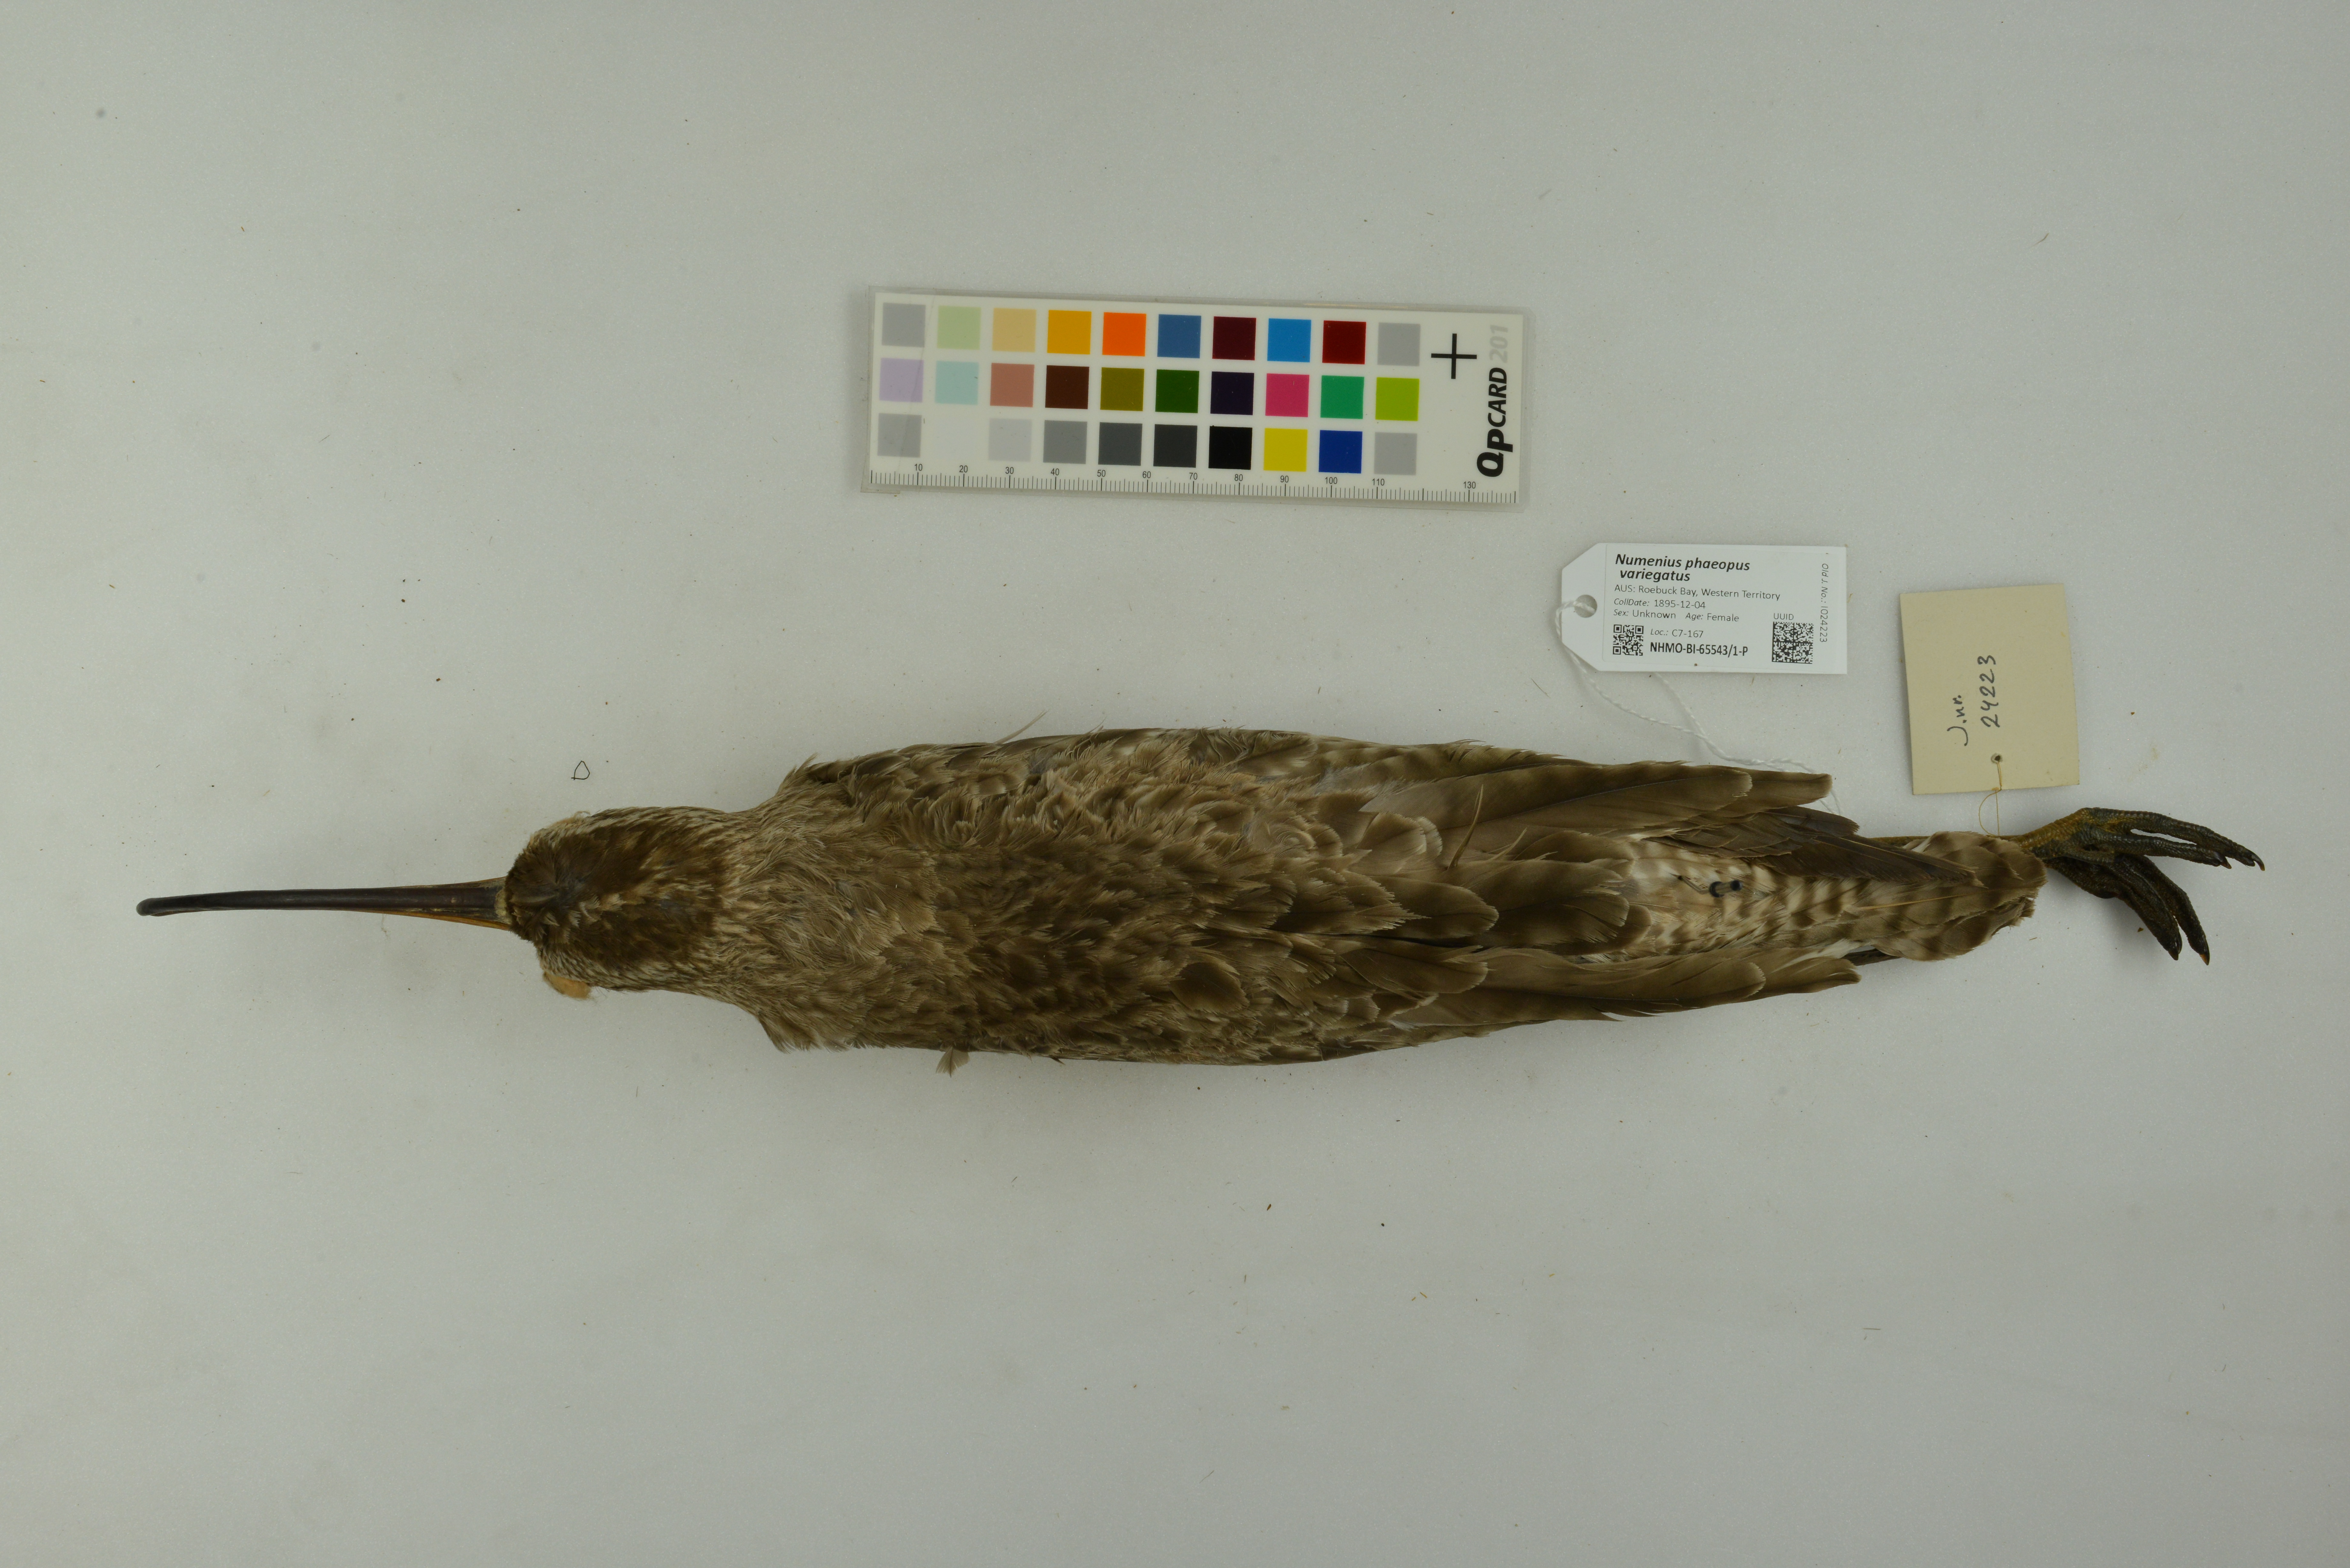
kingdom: Animalia
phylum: Chordata
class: Aves
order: Charadriiformes
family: Scolopacidae
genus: Numenius
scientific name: Numenius phaeopus
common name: Whimbrel
